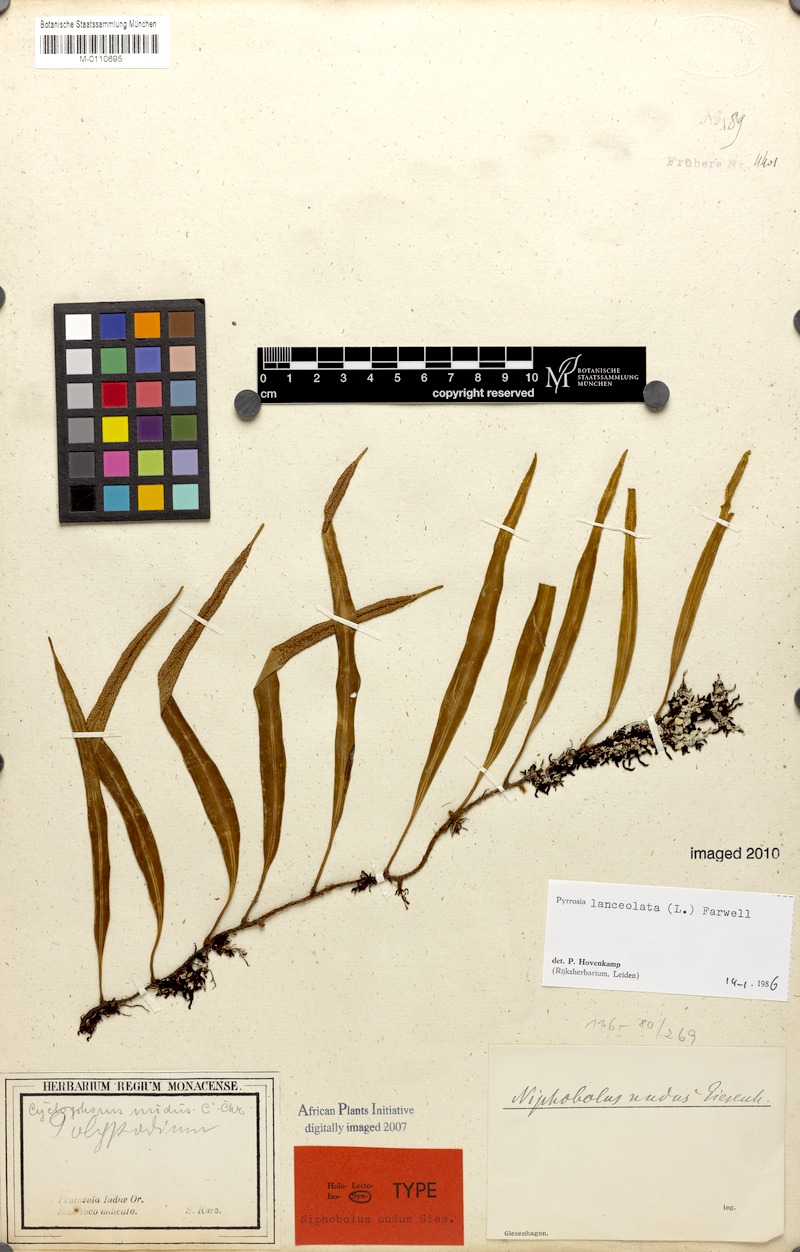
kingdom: Plantae
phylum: Tracheophyta
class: Polypodiopsida
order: Polypodiales
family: Polypodiaceae
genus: Pyrrosia
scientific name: Pyrrosia lanceolata
